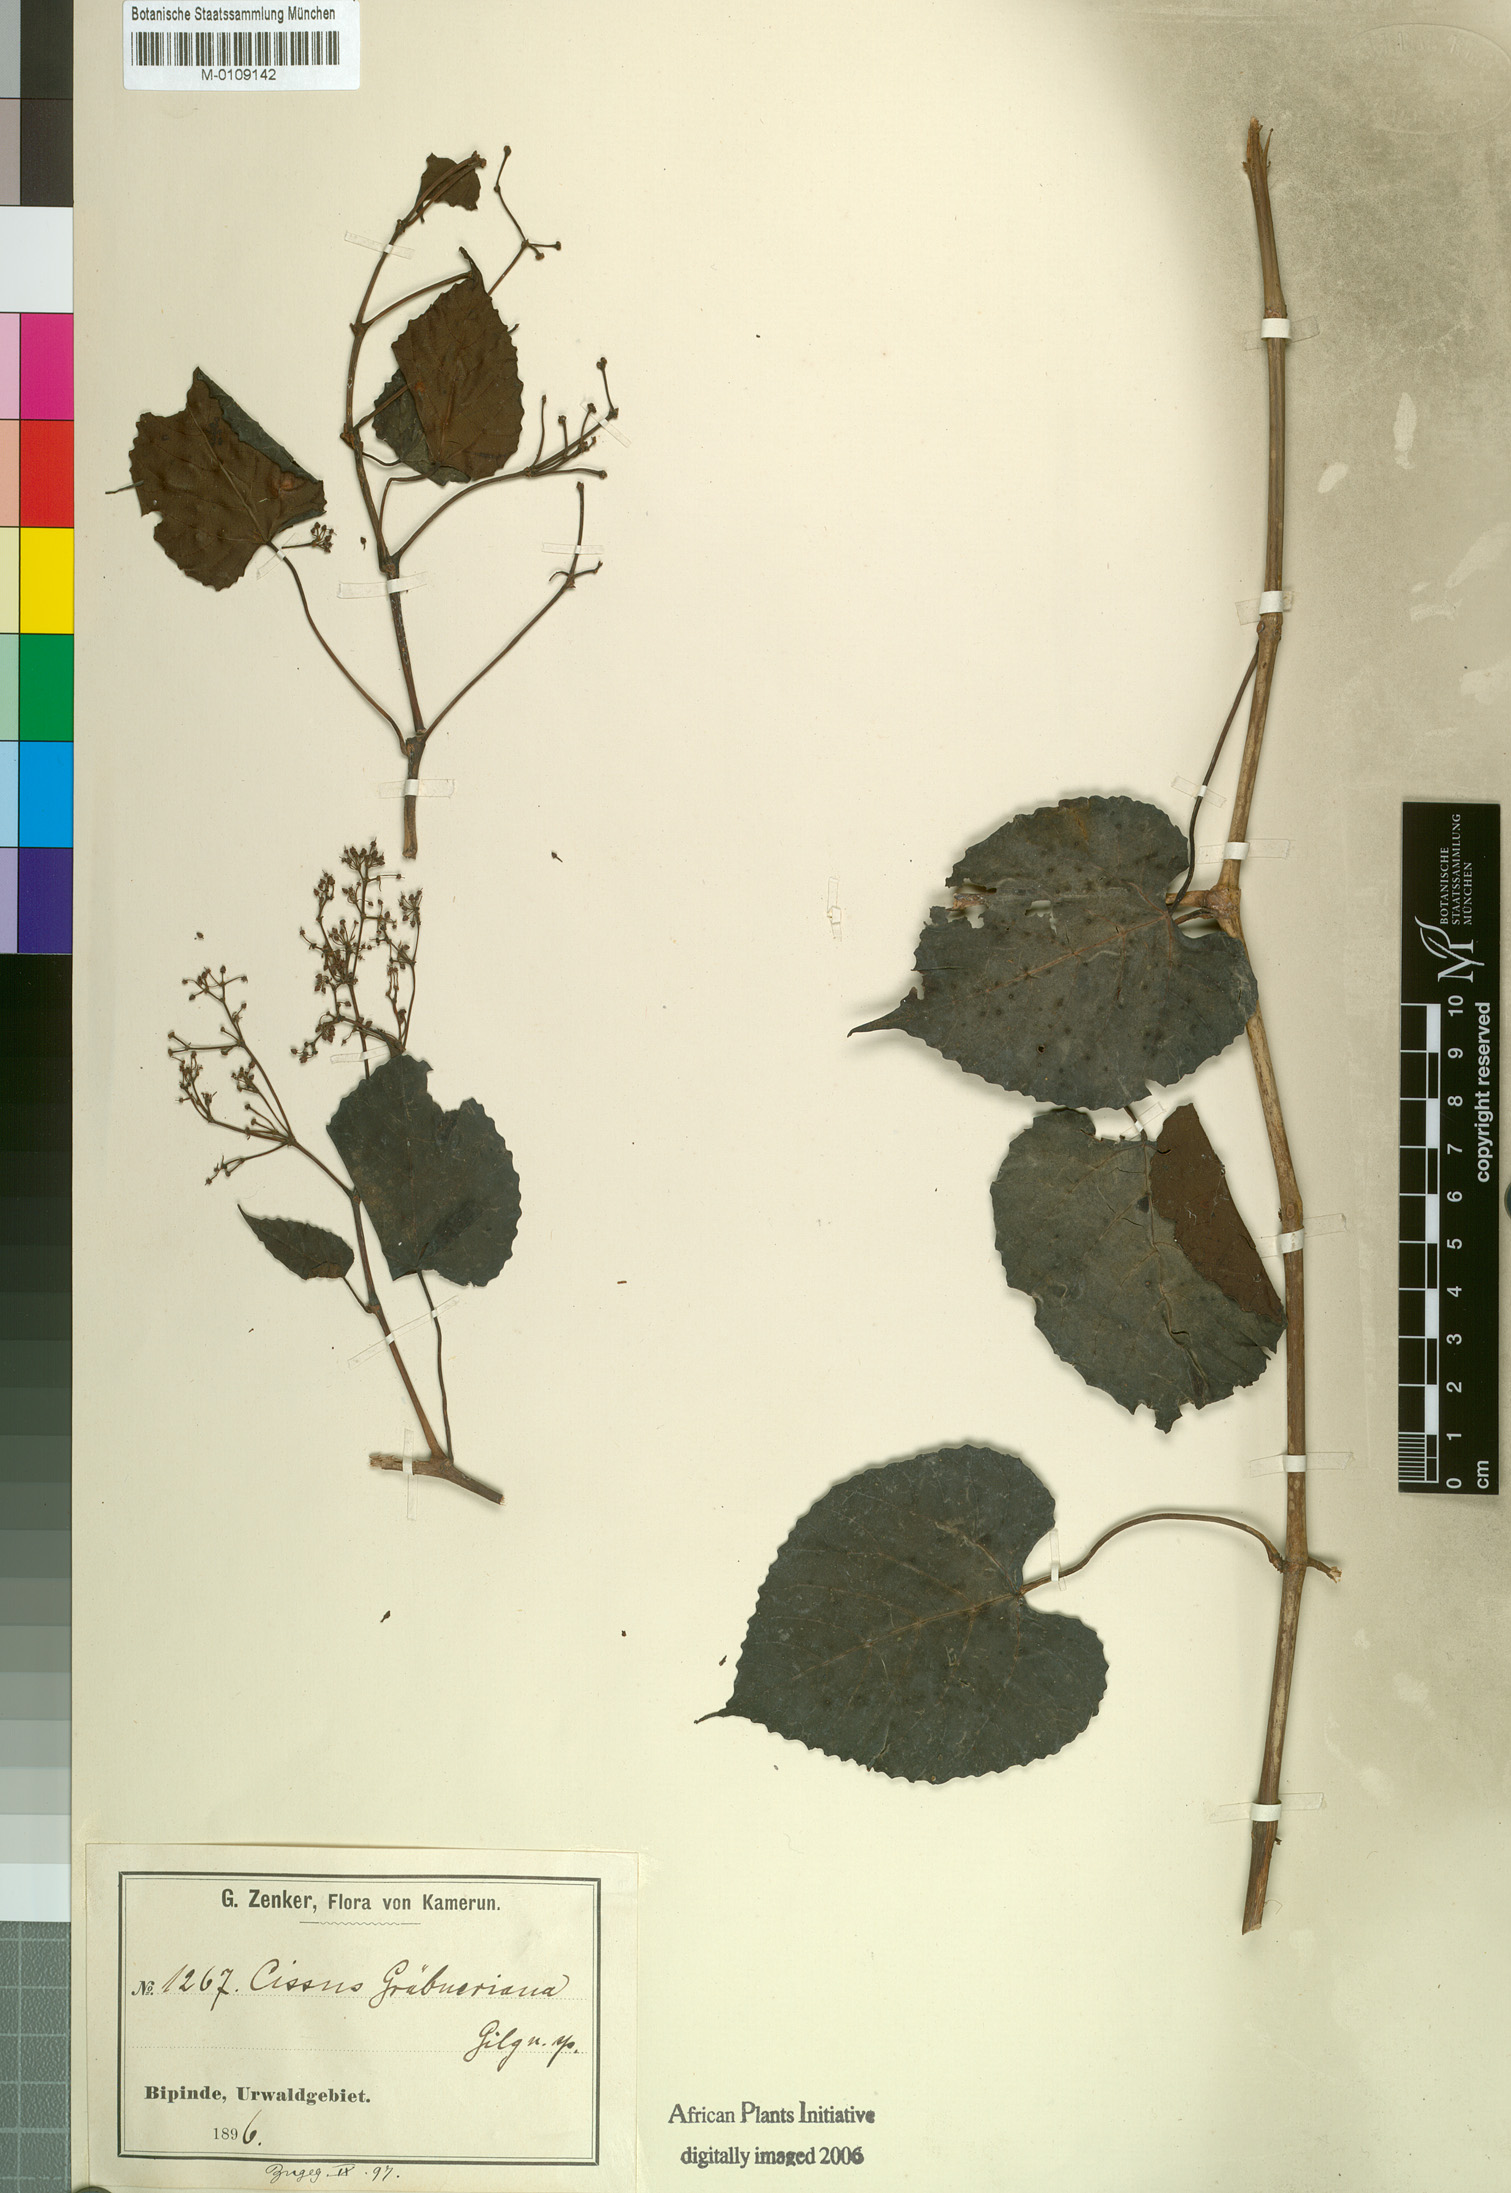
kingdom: Plantae
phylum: Tracheophyta
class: Magnoliopsida
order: Vitales
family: Vitaceae
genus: Cissus
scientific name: Cissus
